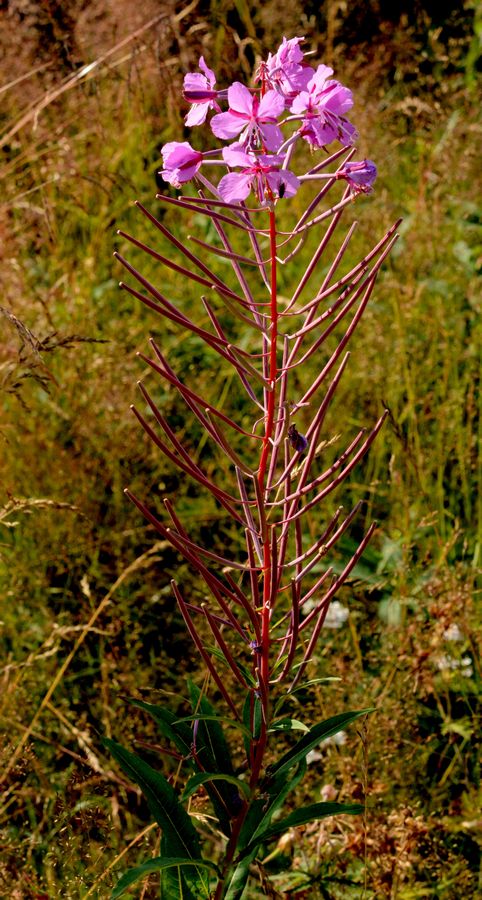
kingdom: Plantae
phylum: Tracheophyta
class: Magnoliopsida
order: Myrtales
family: Onagraceae
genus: Chamaenerion
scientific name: Chamaenerion angustifolium
